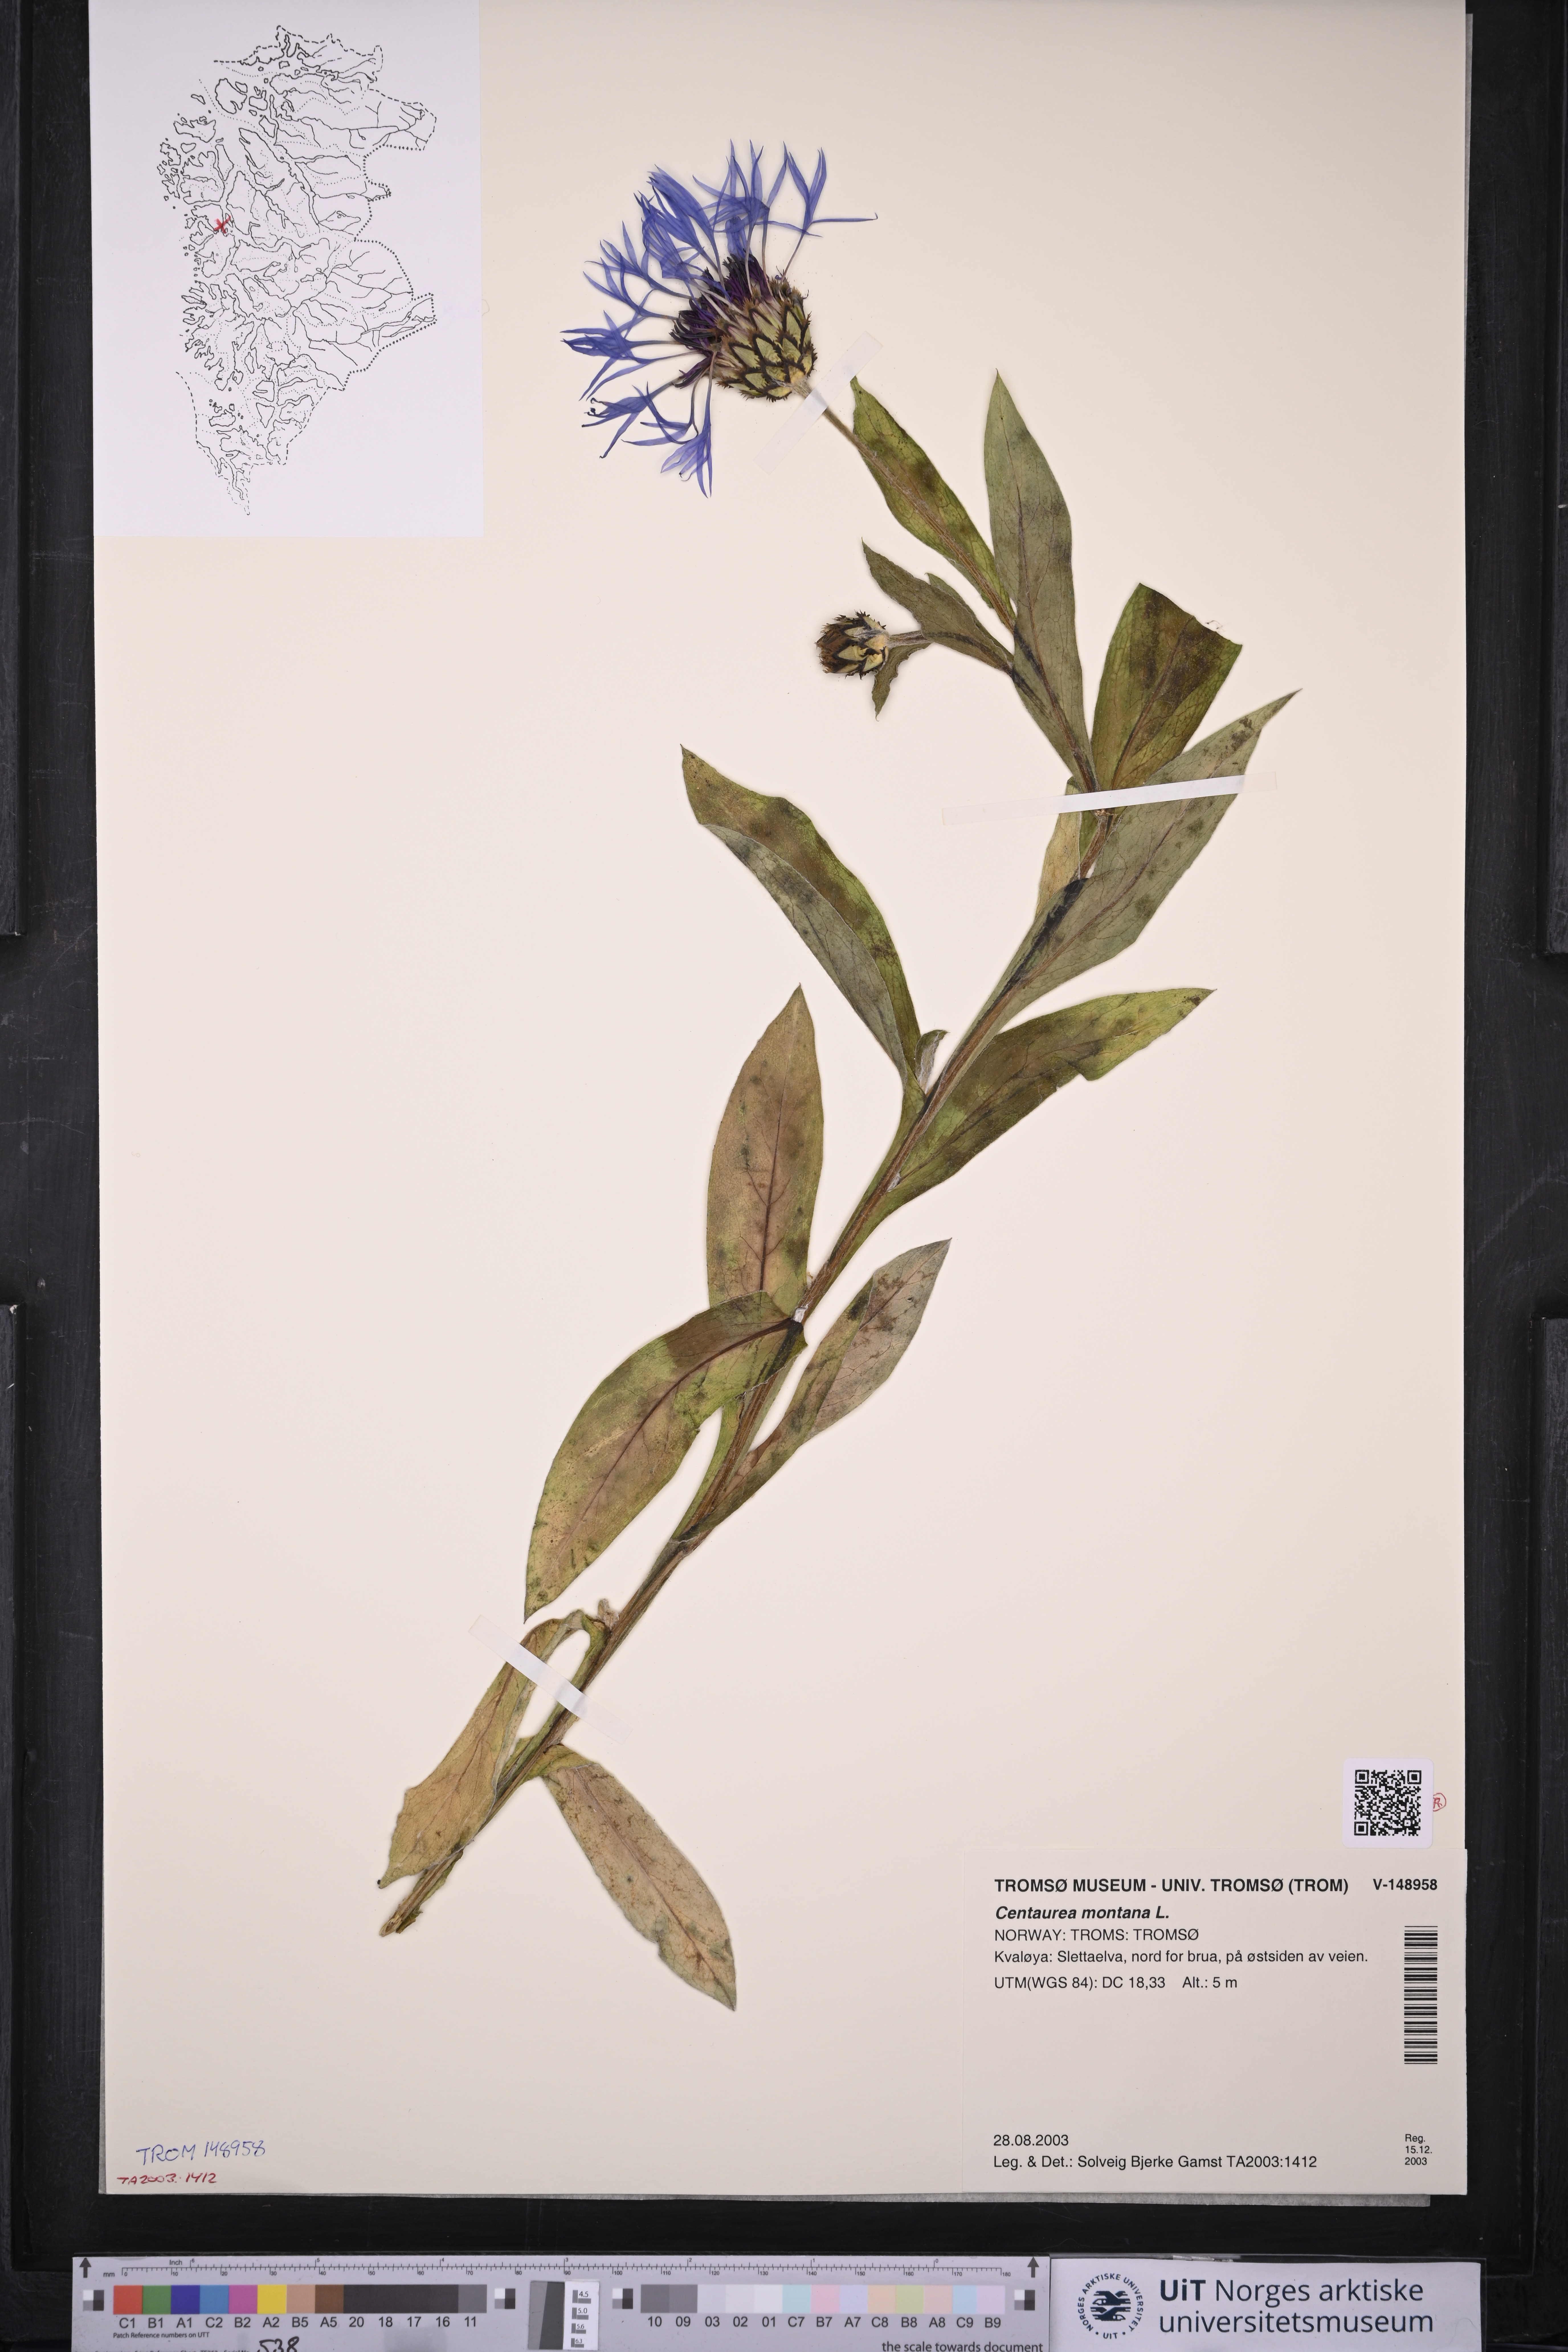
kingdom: Plantae
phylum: Tracheophyta
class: Magnoliopsida
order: Asterales
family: Asteraceae
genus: Centaurea
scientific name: Centaurea montana
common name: Perennial cornflower
